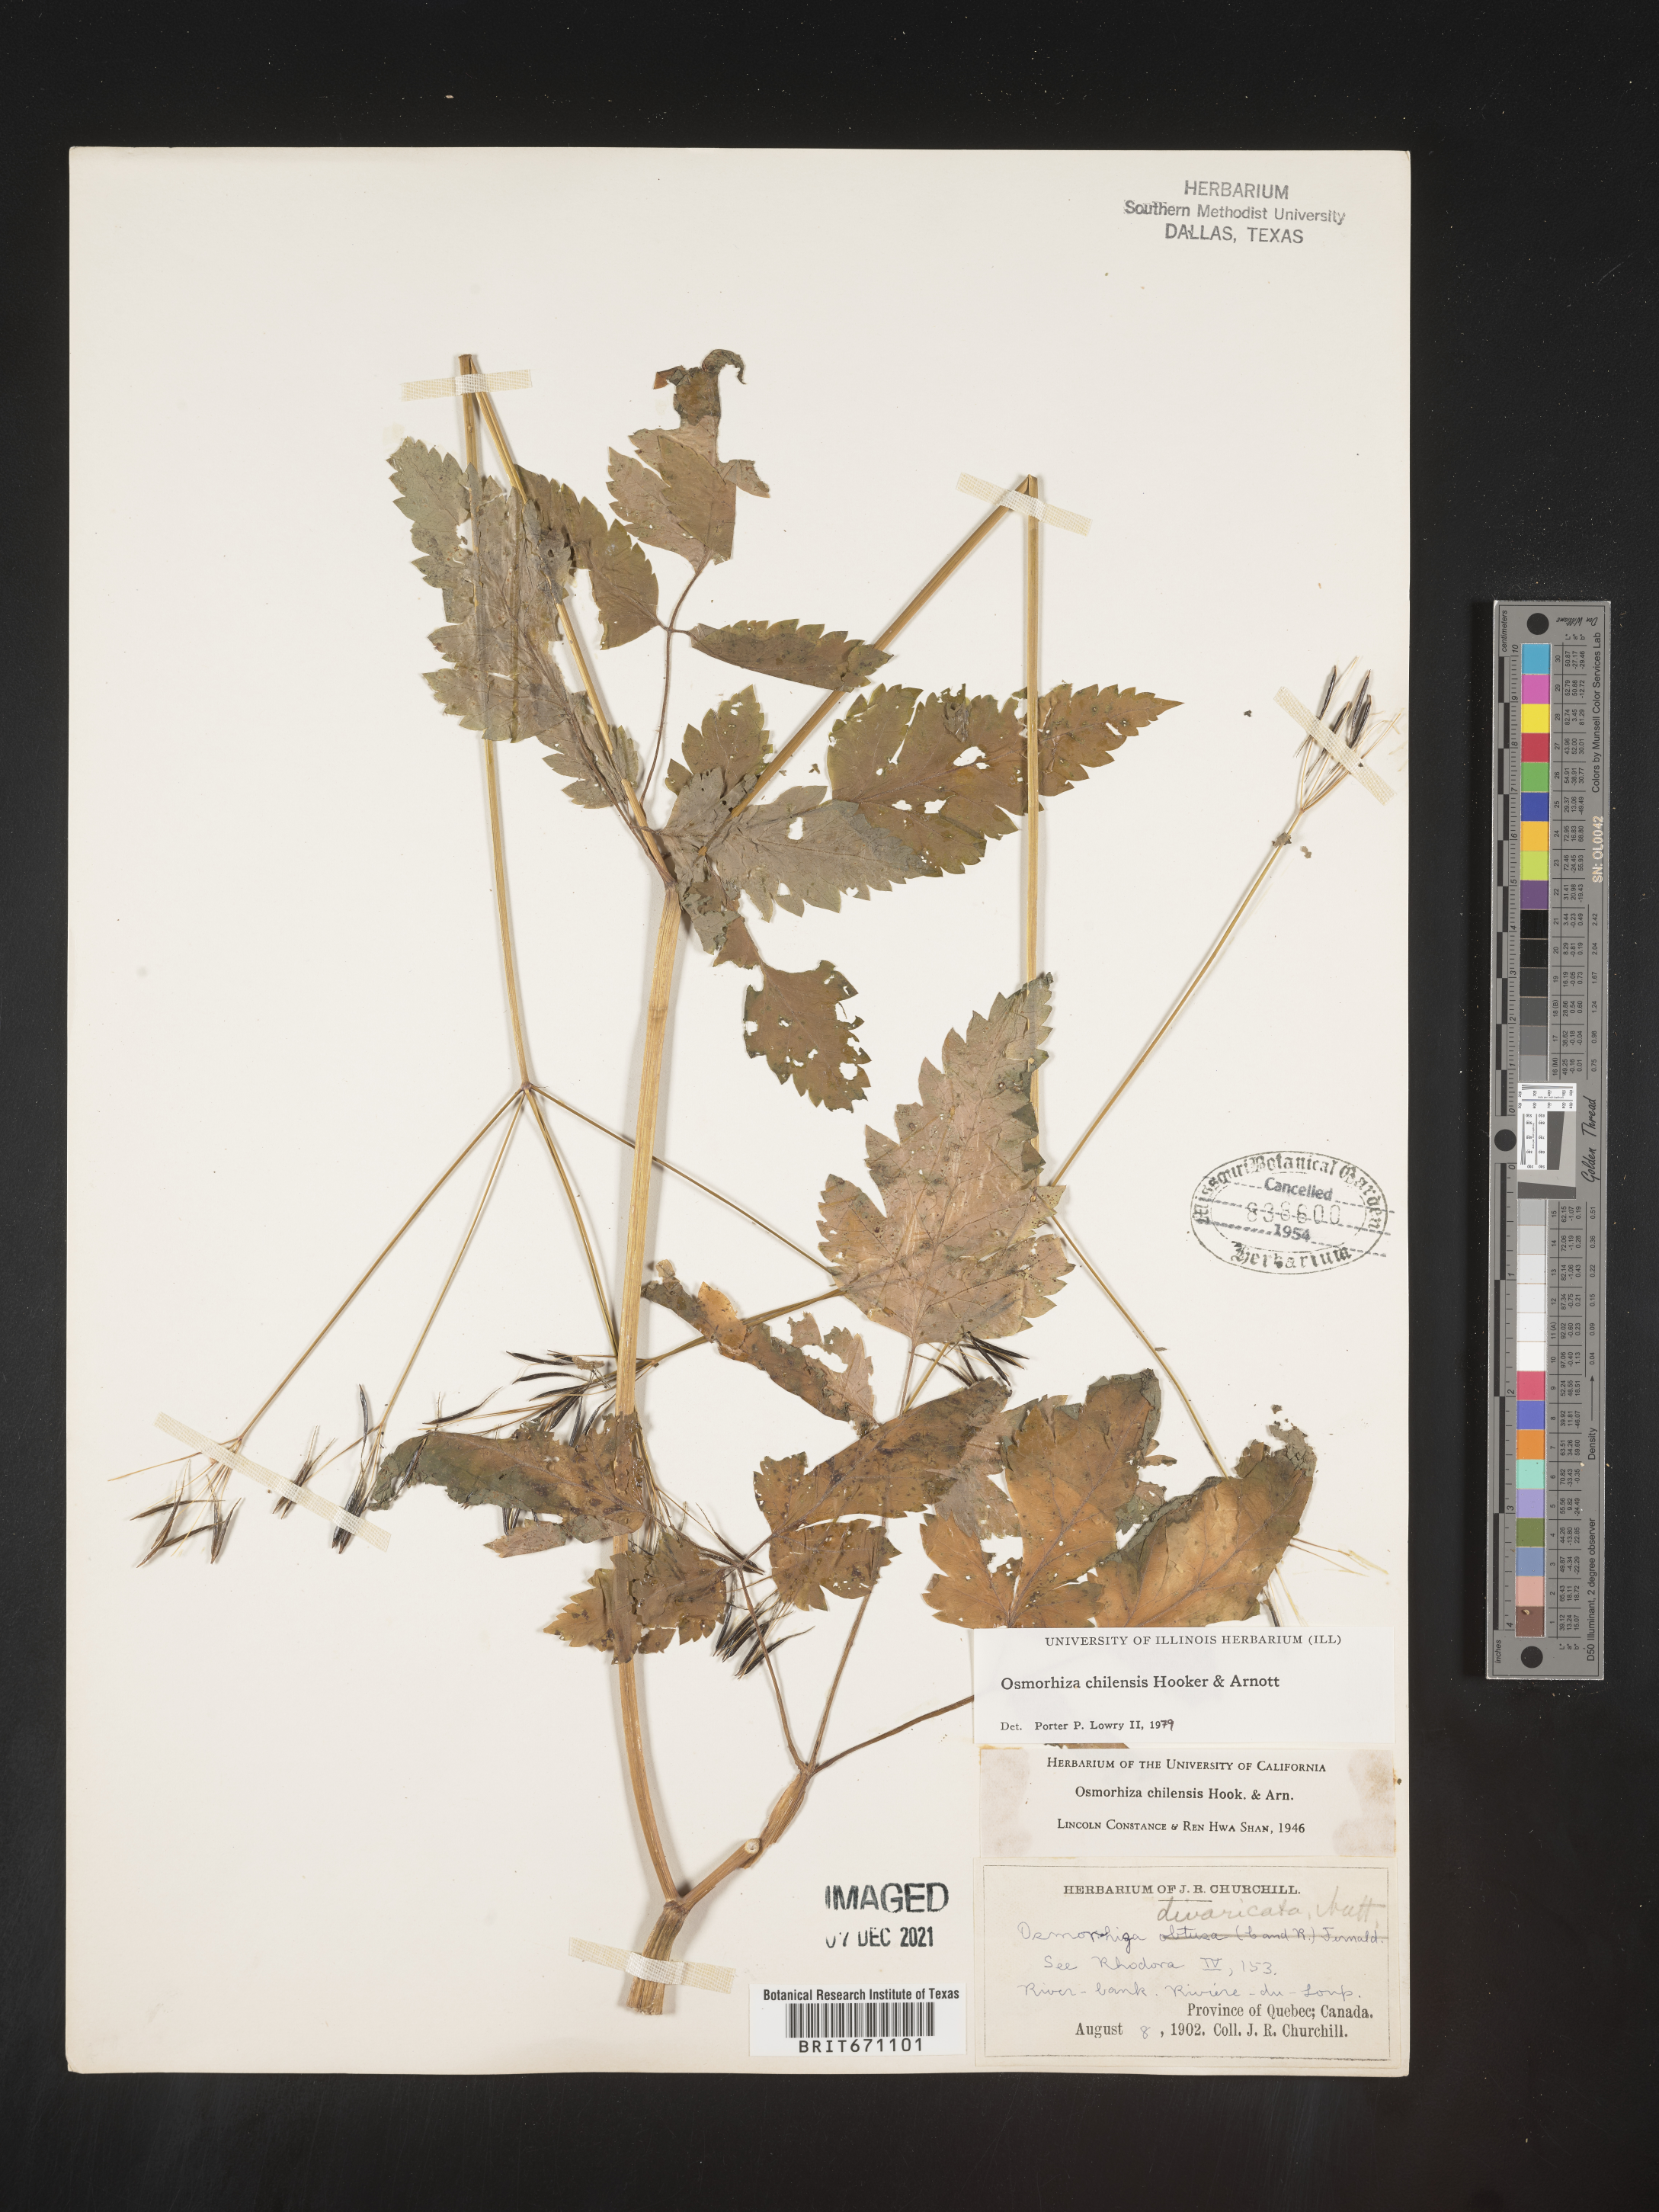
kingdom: Plantae
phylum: Tracheophyta
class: Magnoliopsida
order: Apiales
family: Apiaceae
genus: Osmorhiza
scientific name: Osmorhiza berteroi
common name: Mountain sweet cicely
